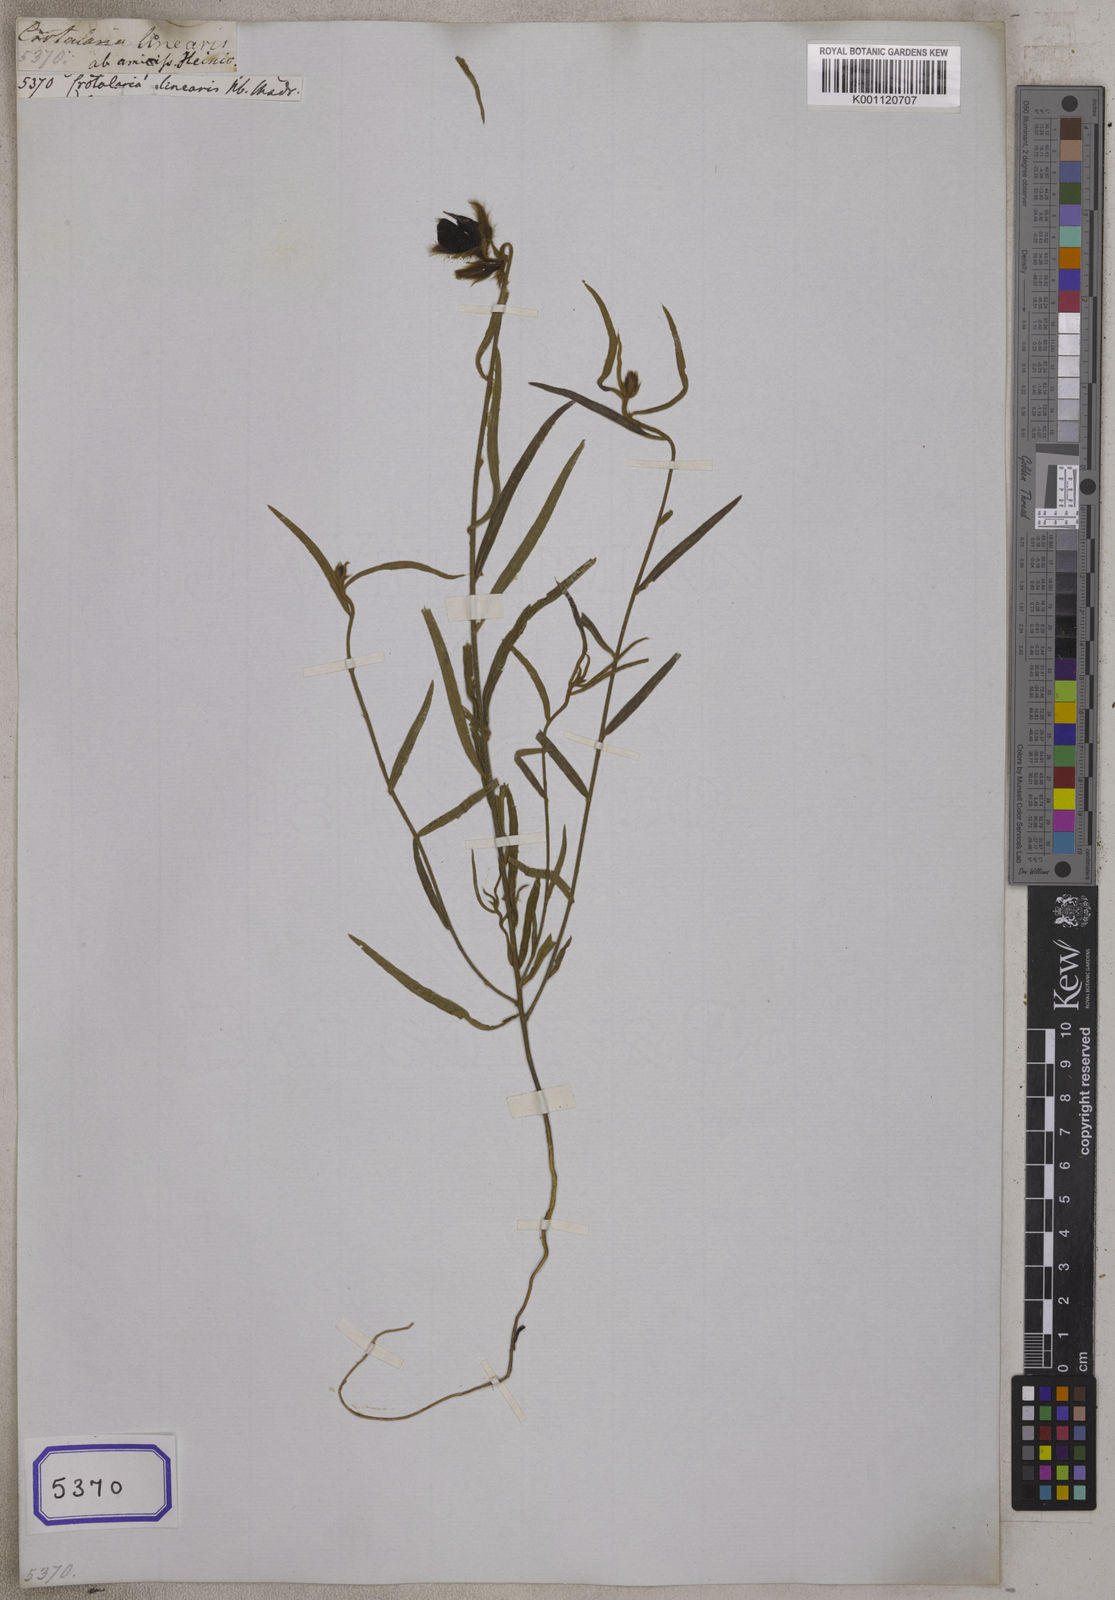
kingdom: Plantae
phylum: Tracheophyta
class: Magnoliopsida
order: Fabales
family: Fabaceae
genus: Crotalaria
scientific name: Crotalaria
